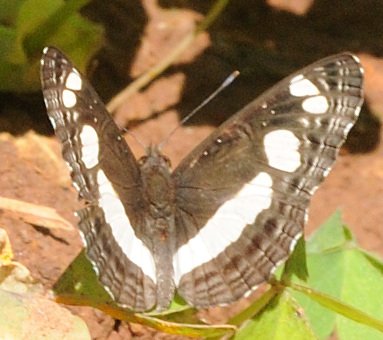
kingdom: Animalia
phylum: Arthropoda
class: Insecta
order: Lepidoptera
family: Nymphalidae
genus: Neptis
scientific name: Neptis saclava
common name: Spotted Sailer
